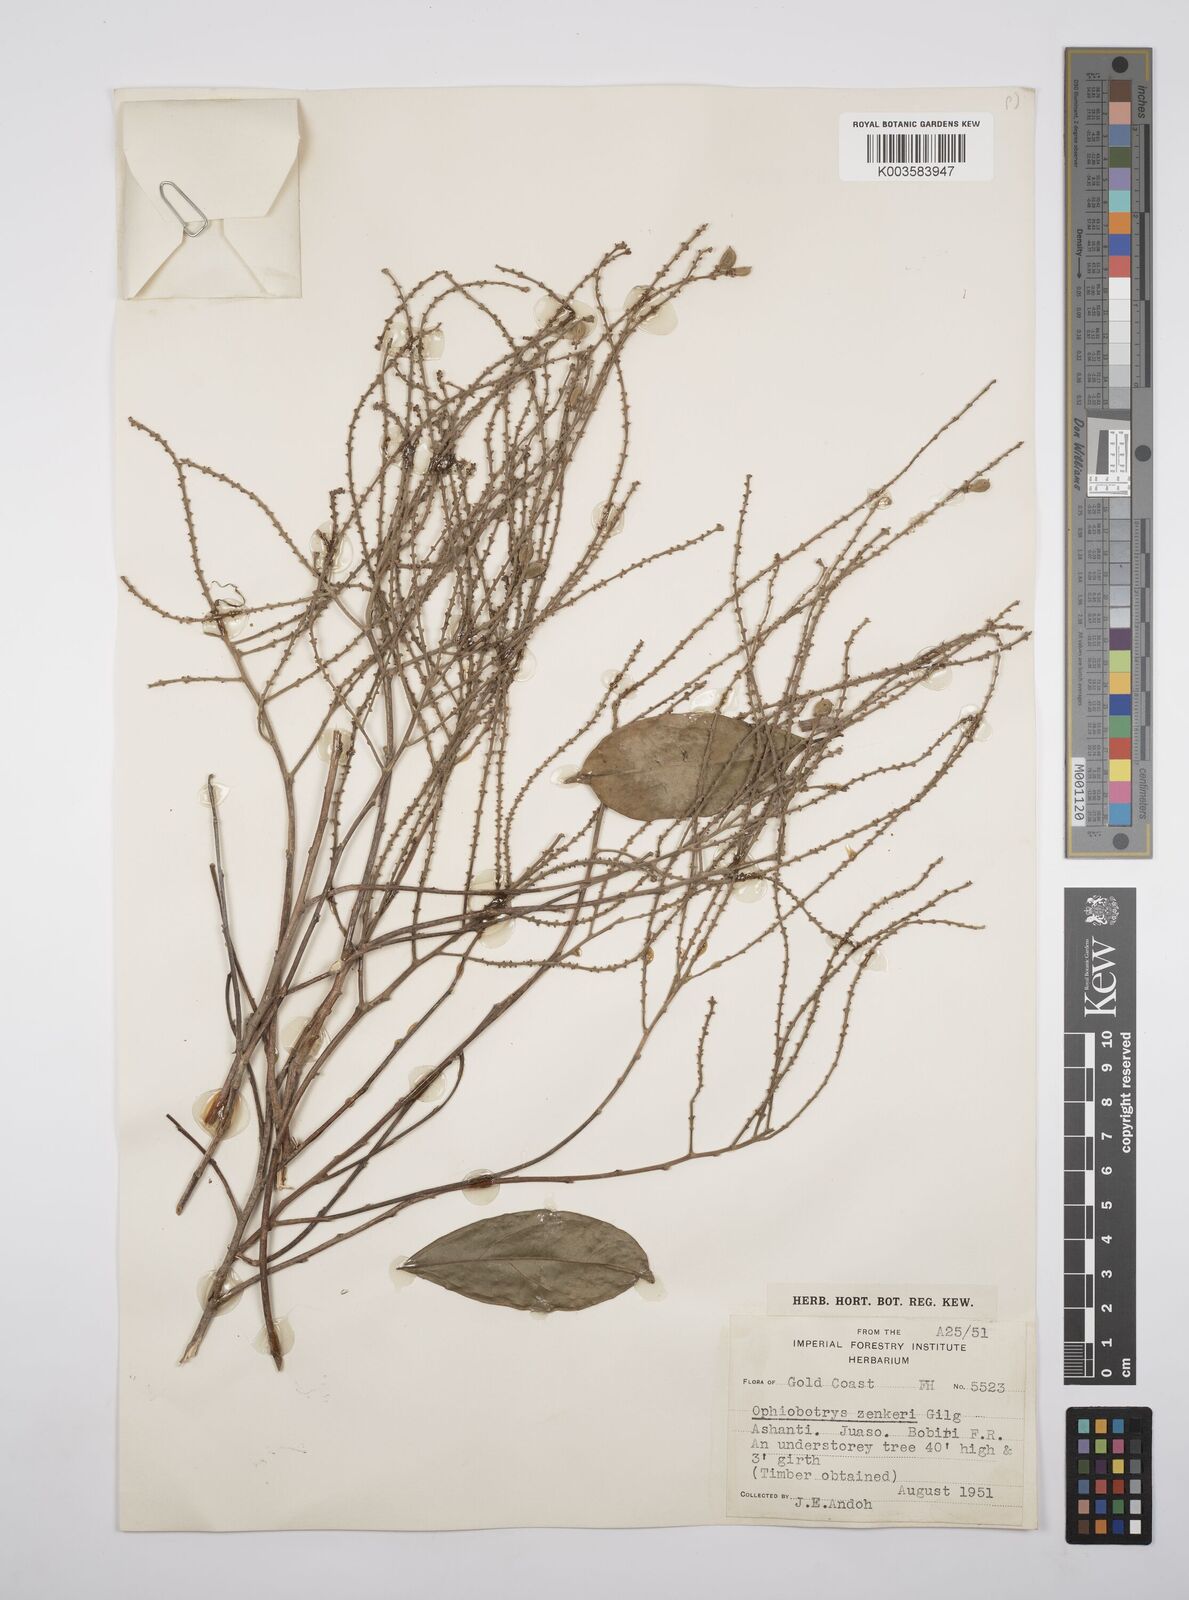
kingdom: Plantae
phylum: Tracheophyta
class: Magnoliopsida
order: Malpighiales
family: Salicaceae
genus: Ophiobotrys
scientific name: Ophiobotrys zenkeri
